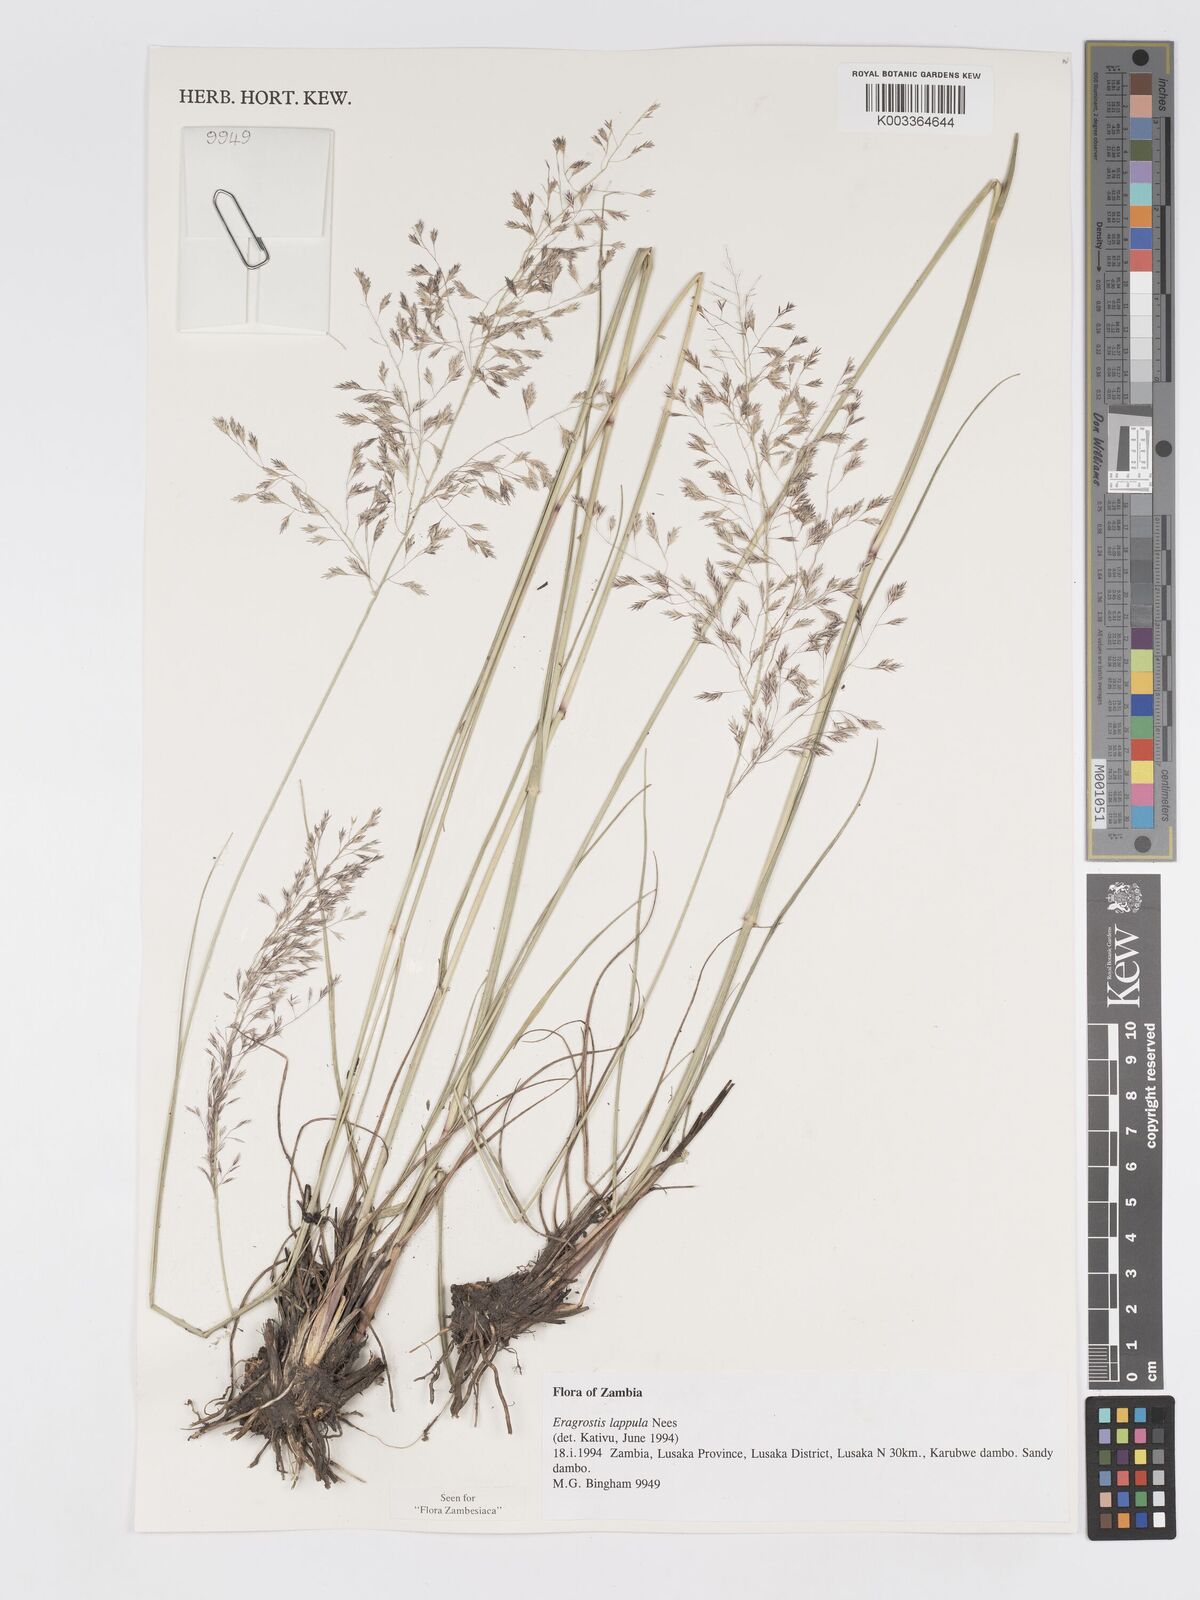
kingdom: Plantae
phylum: Tracheophyta
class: Liliopsida
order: Poales
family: Poaceae
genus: Eragrostis
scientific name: Eragrostis lappula
